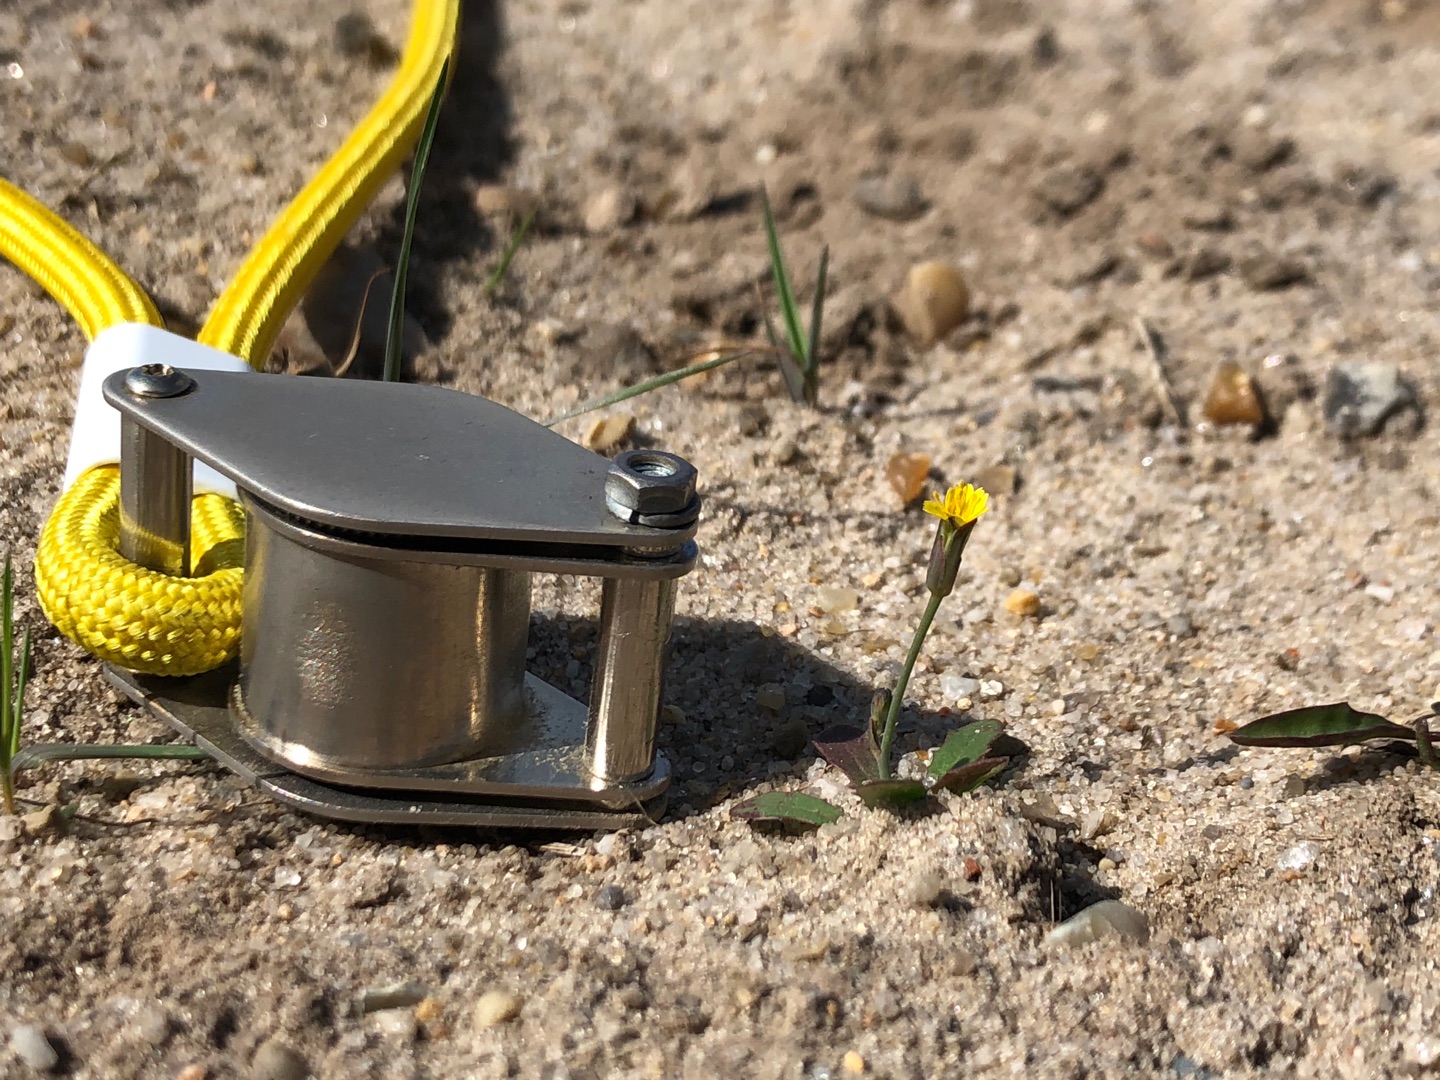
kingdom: Plantae
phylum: Tracheophyta
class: Magnoliopsida
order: Asterales
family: Asteraceae
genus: Hypochaeris
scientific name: Hypochaeris glabra
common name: Glat kongepen
